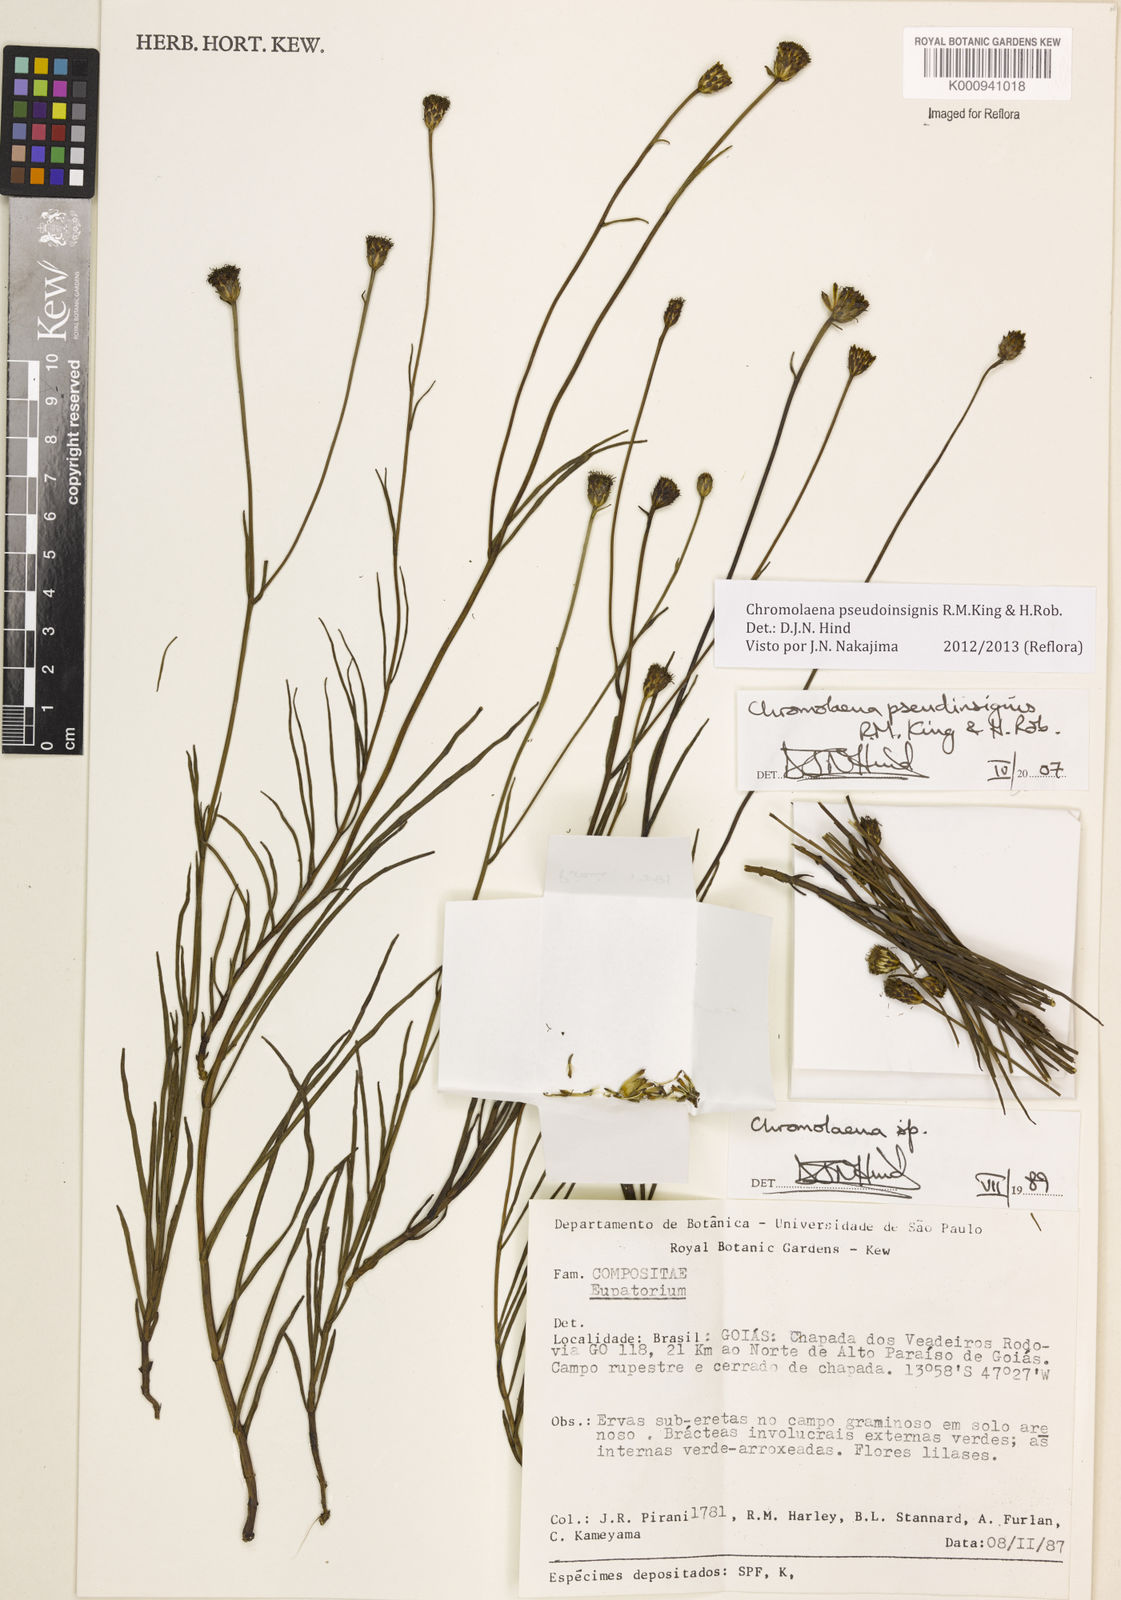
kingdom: Plantae
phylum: Tracheophyta
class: Magnoliopsida
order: Asterales
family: Asteraceae
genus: Chromolaena
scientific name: Chromolaena
